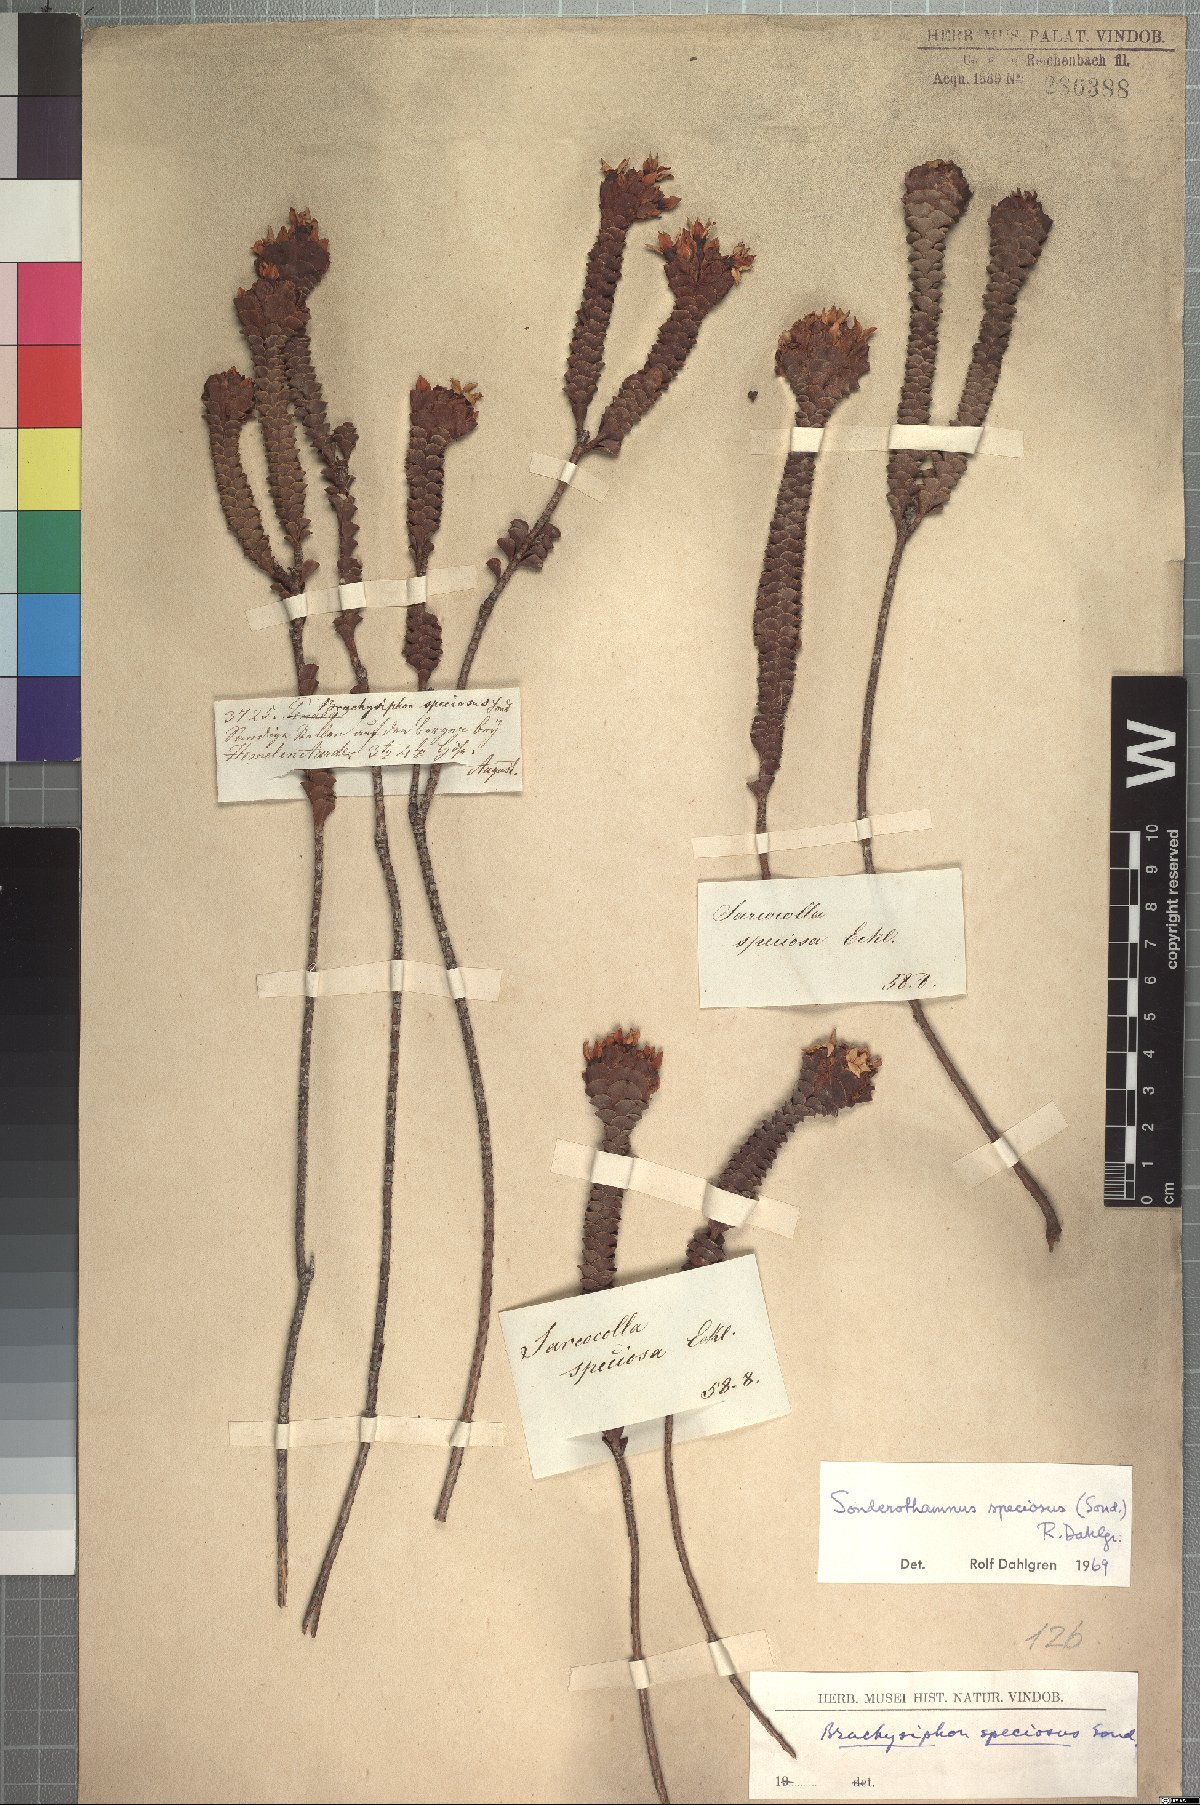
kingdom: Plantae
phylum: Tracheophyta
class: Magnoliopsida
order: Myrtales
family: Penaeaceae
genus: Sonderothamnus
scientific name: Sonderothamnus speciosus
